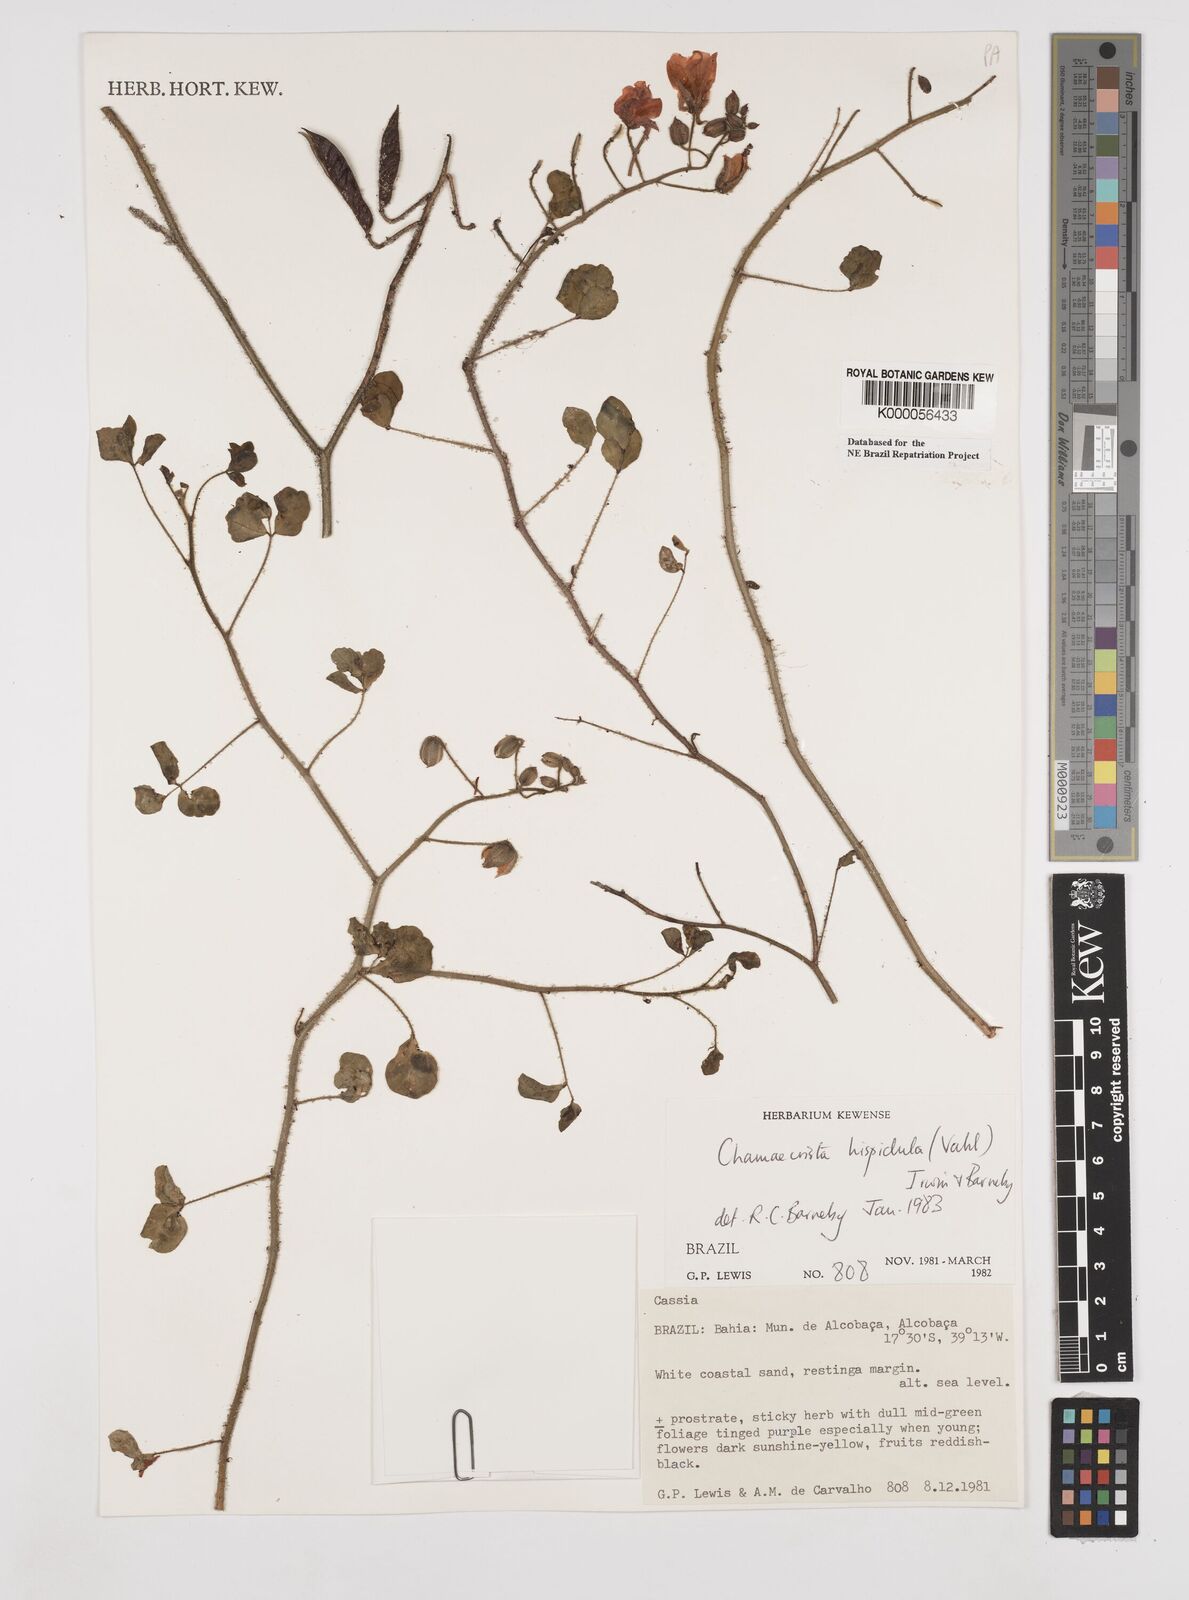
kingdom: Plantae
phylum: Tracheophyta
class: Magnoliopsida
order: Fabales
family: Fabaceae
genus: Chamaecrista
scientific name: Chamaecrista hispidula
